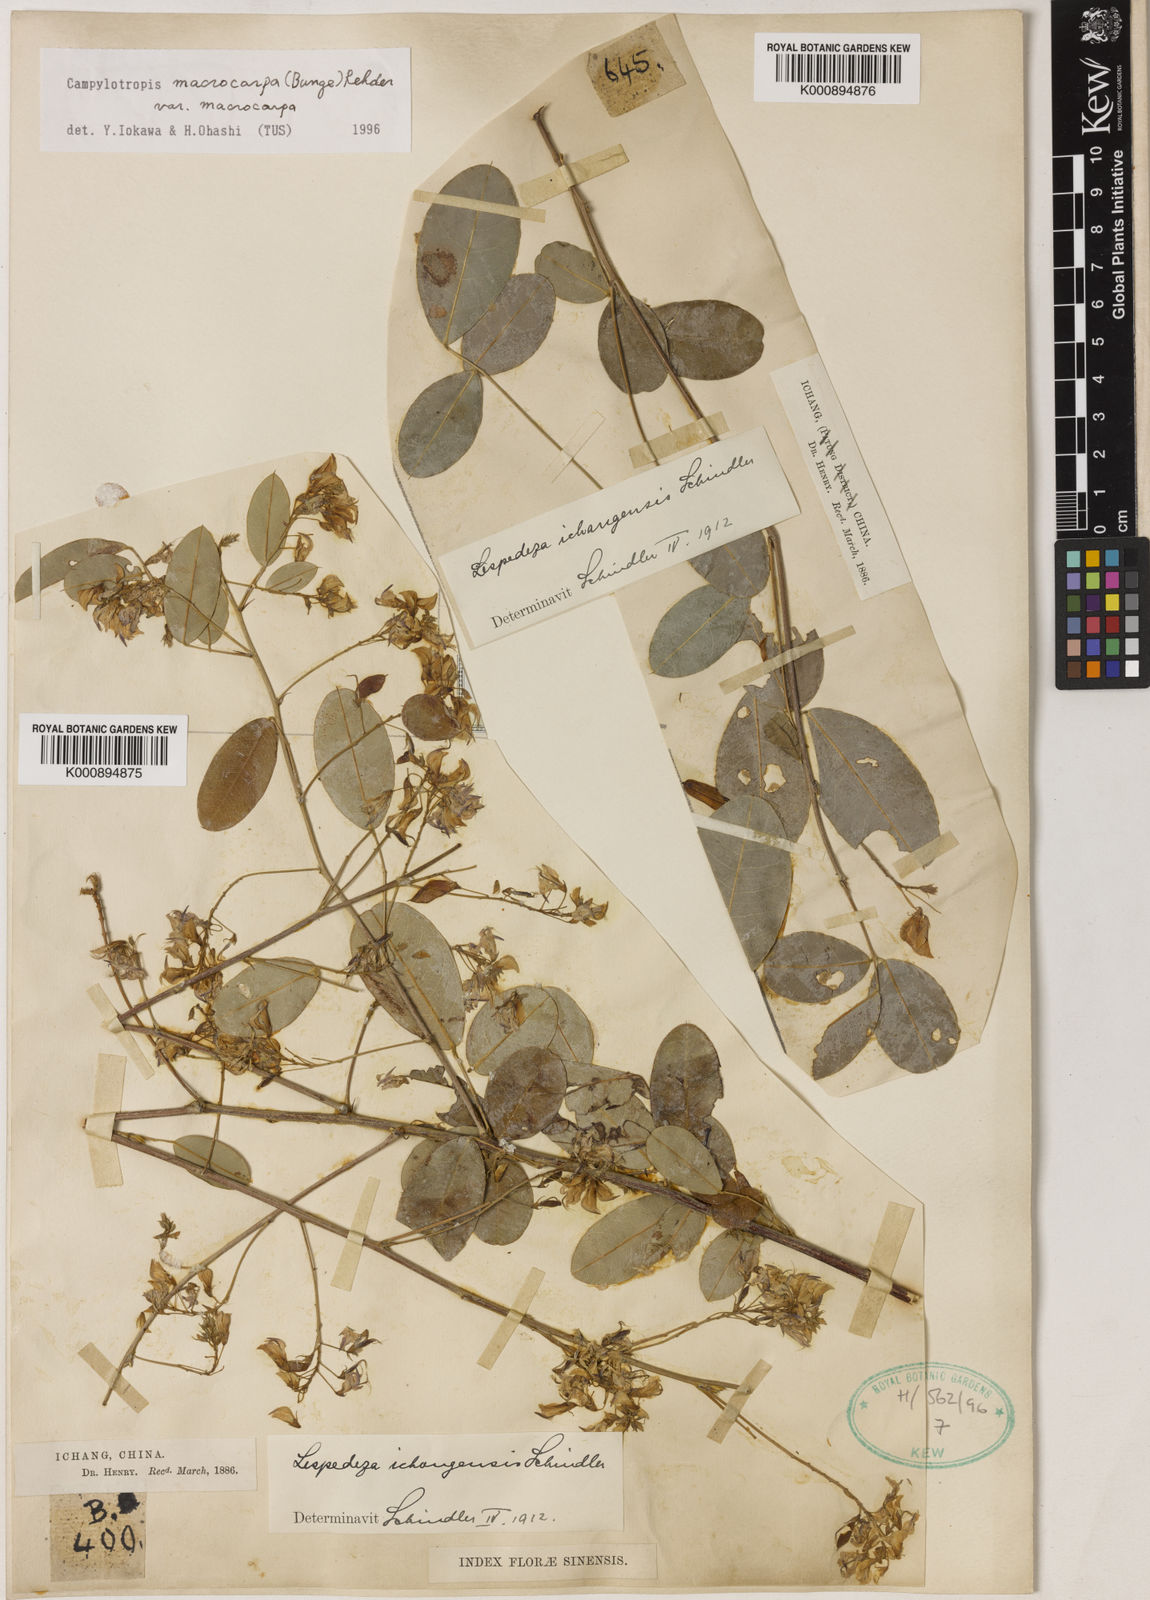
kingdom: Plantae
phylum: Tracheophyta
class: Magnoliopsida
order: Fabales
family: Fabaceae
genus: Campylotropis
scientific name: Campylotropis macrocarpa
